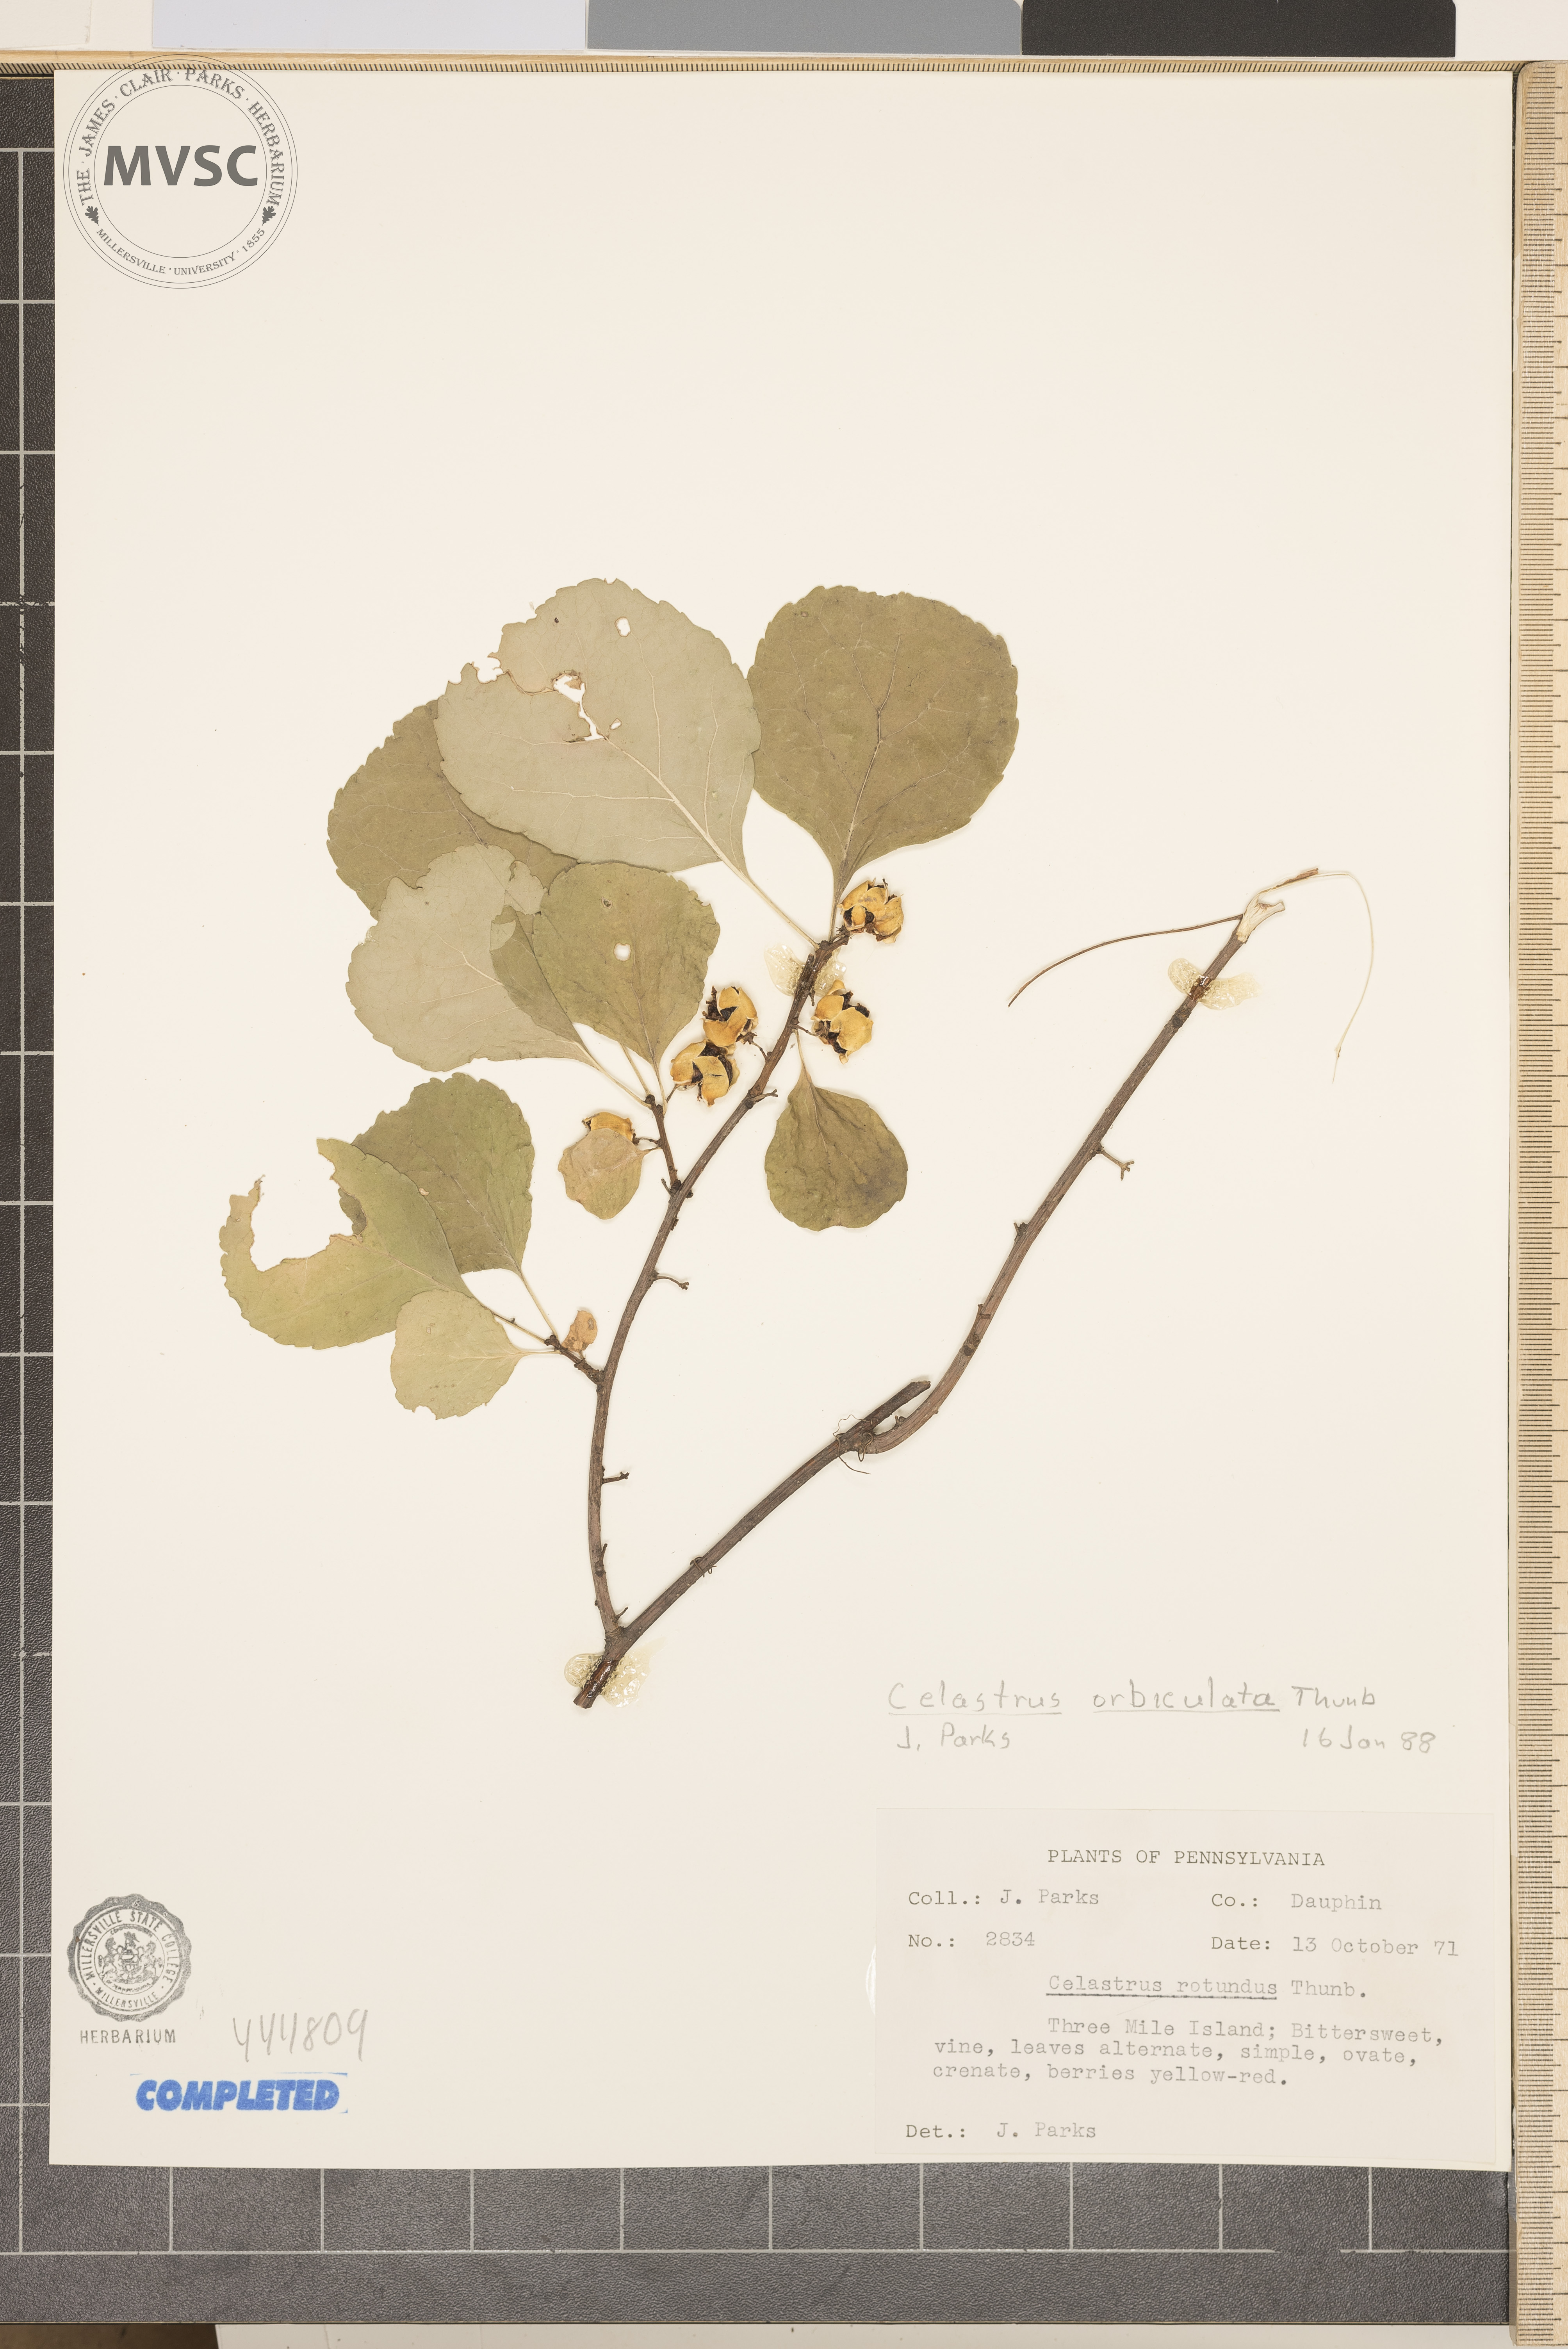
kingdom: Plantae
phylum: Tracheophyta
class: Magnoliopsida
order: Celastrales
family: Celastraceae
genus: Celastrus
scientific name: Celastrus orbiculatus
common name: Oriental bittersweet
